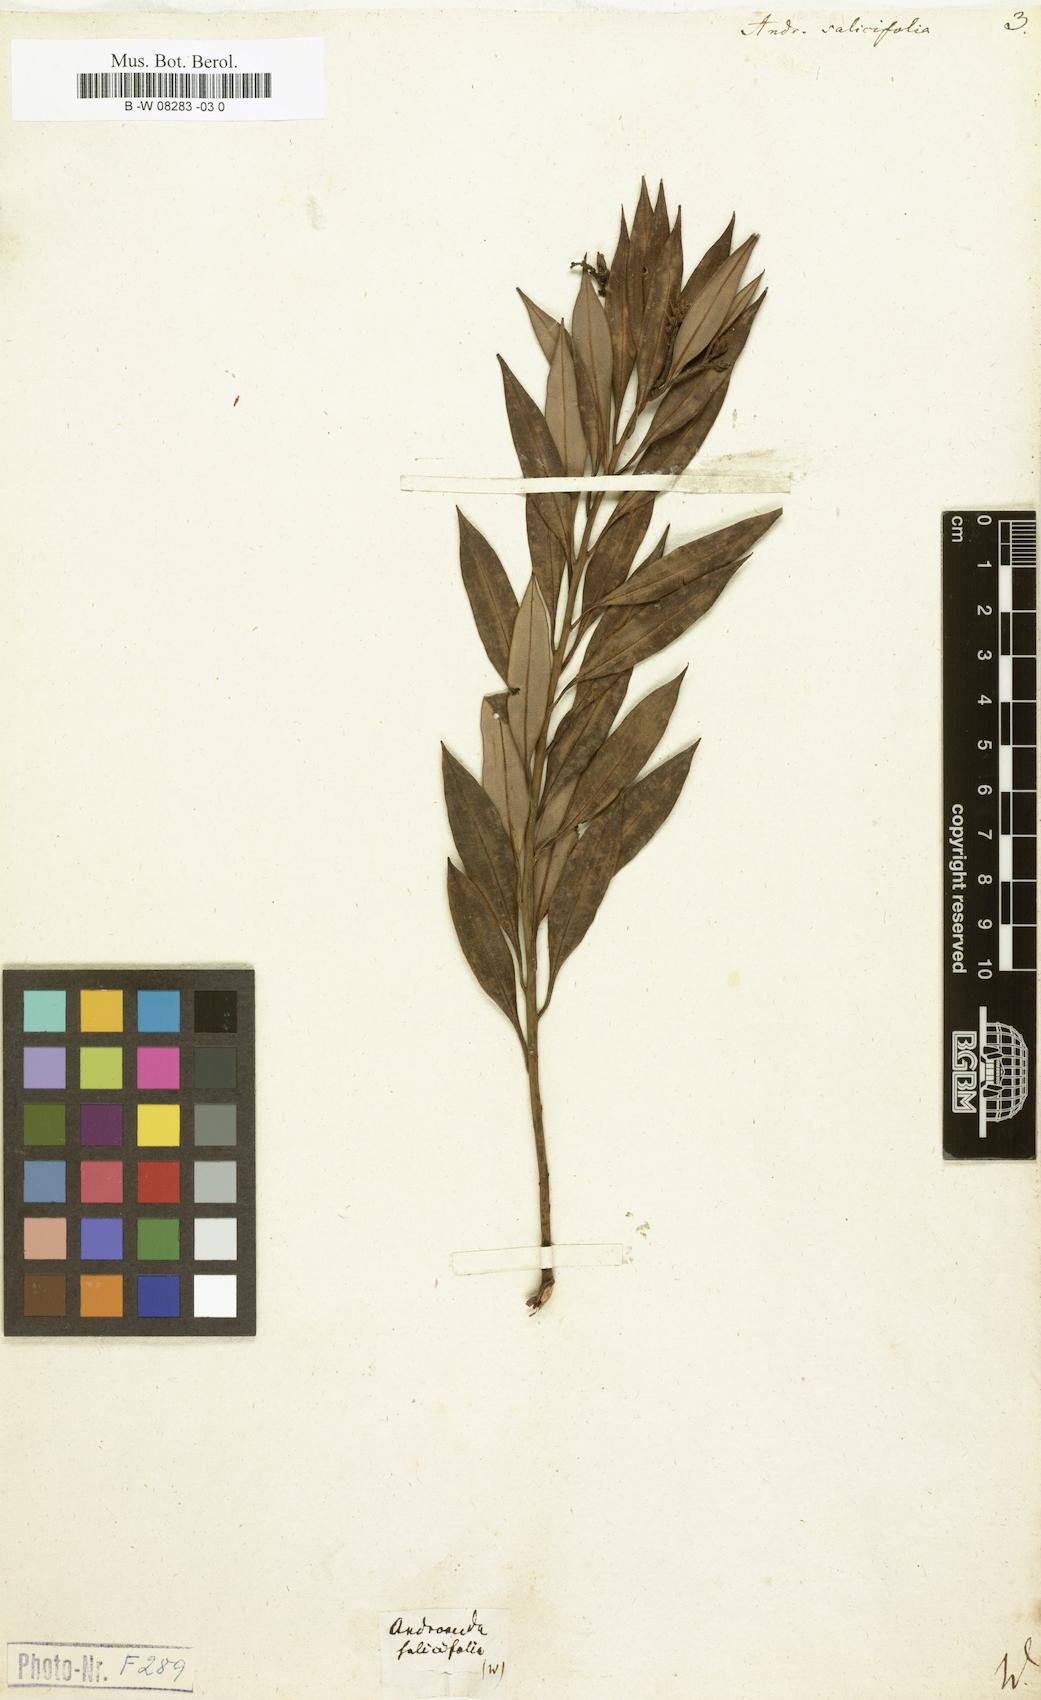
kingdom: Plantae
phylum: Tracheophyta
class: Magnoliopsida
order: Ericales
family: Ericaceae
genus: Agarista
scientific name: Agarista salicifolia
